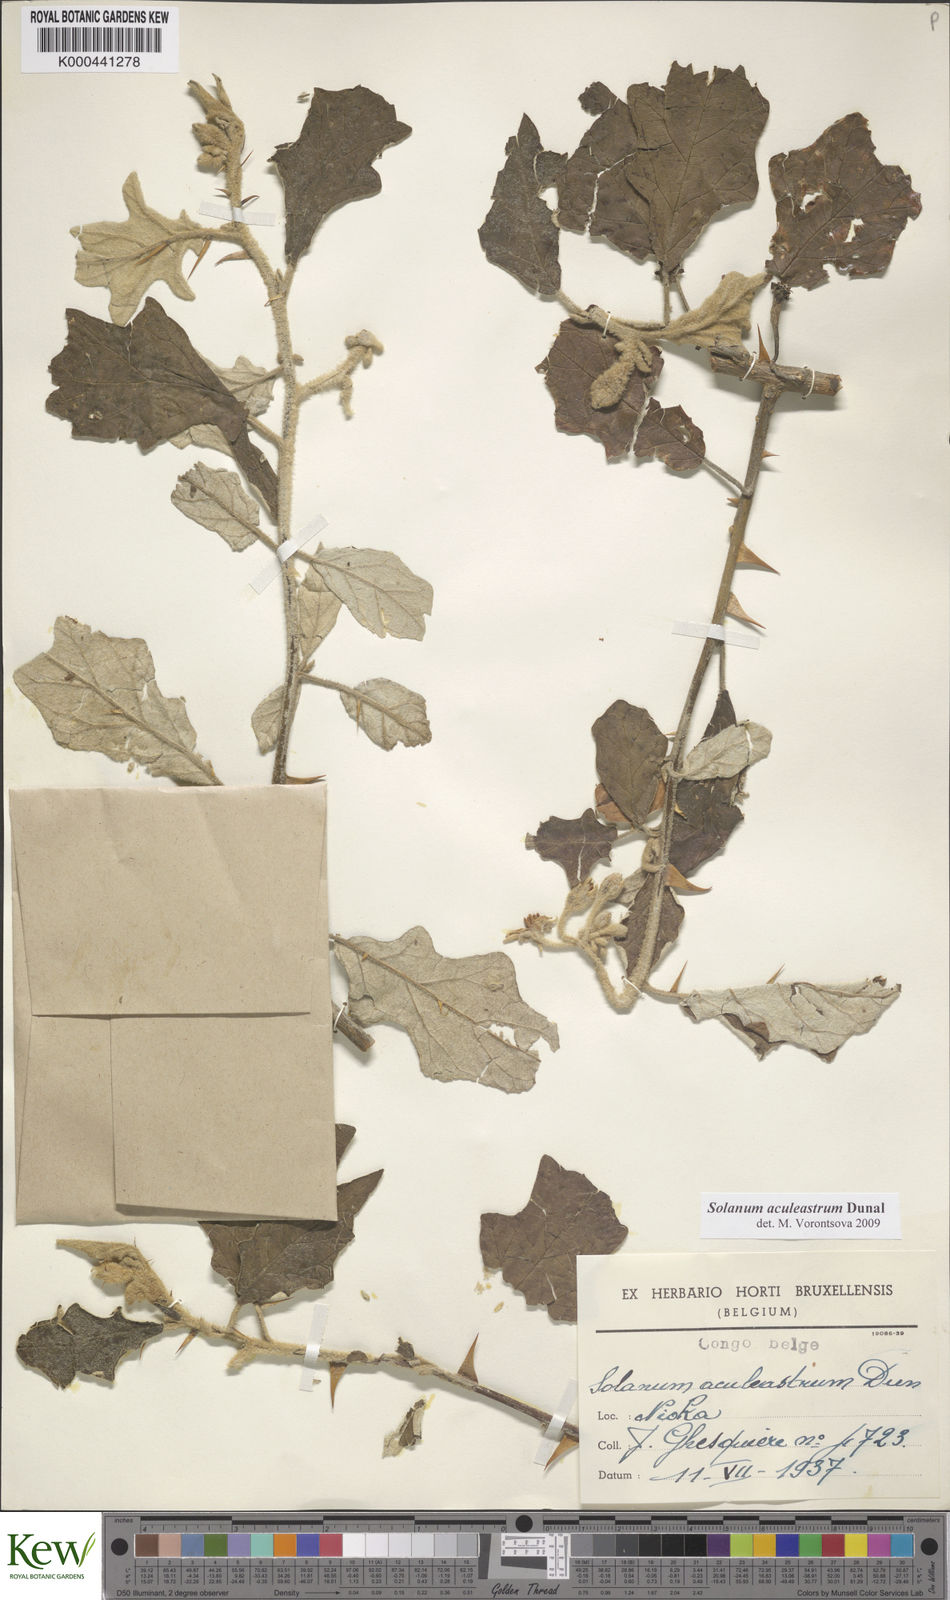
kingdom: Plantae
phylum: Tracheophyta
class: Magnoliopsida
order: Solanales
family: Solanaceae
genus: Solanum
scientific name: Solanum aculeastrum
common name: Goat bitter-apple
